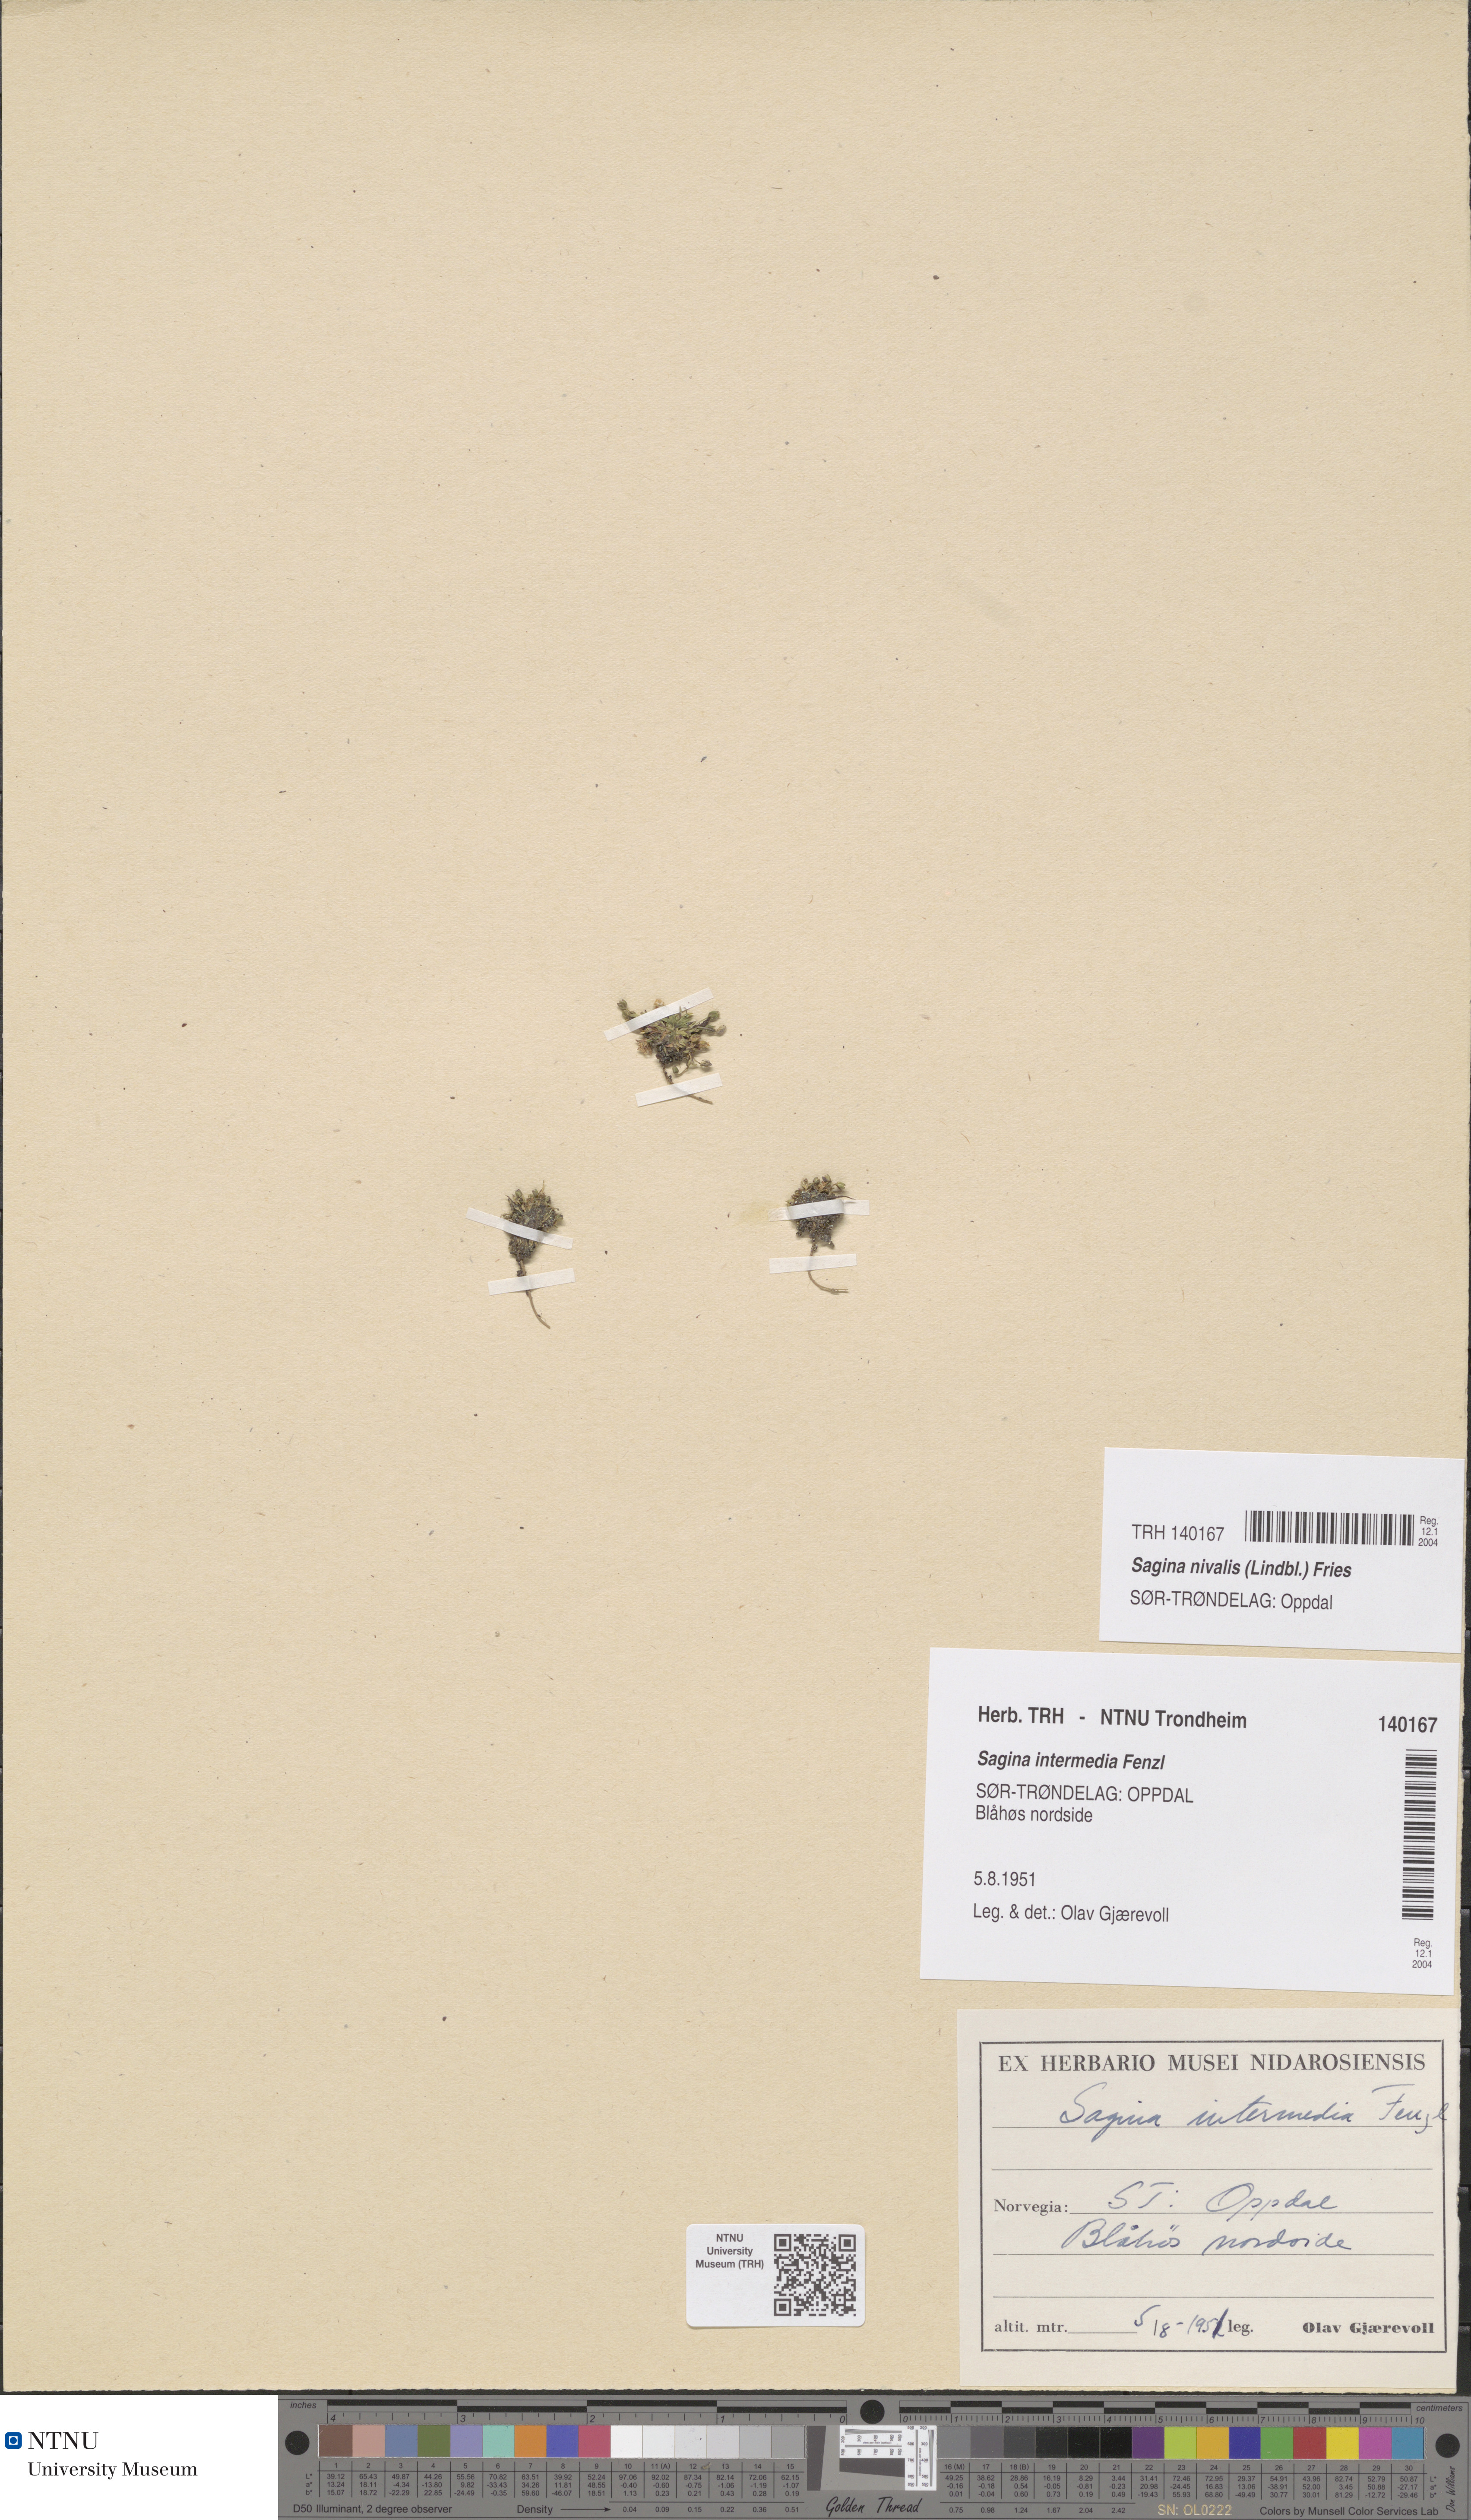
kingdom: Plantae
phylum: Tracheophyta
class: Magnoliopsida
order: Caryophyllales
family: Caryophyllaceae
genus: Sagina
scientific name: Sagina nivalis
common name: Snow pearlwort
